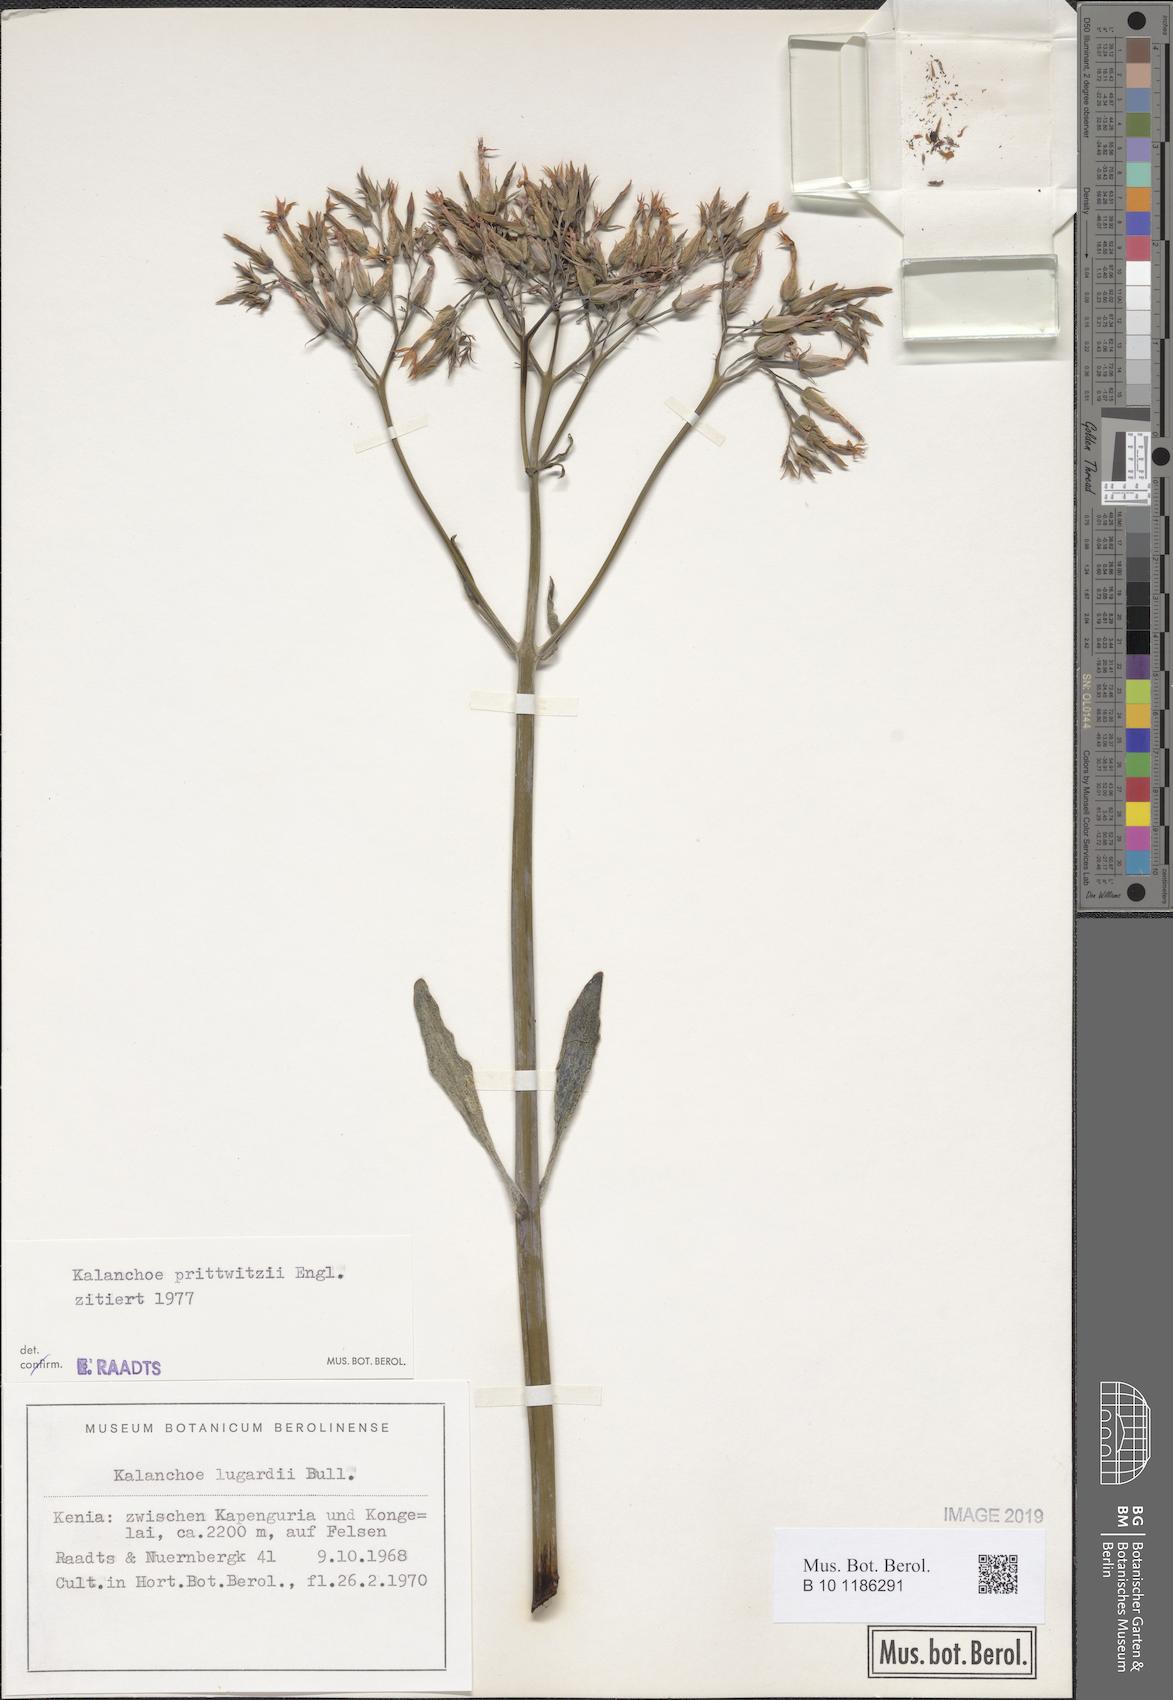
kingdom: Plantae
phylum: Tracheophyta
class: Magnoliopsida
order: Saxifragales
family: Crassulaceae
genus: Kalanchoe
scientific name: Kalanchoe prittwitzii
